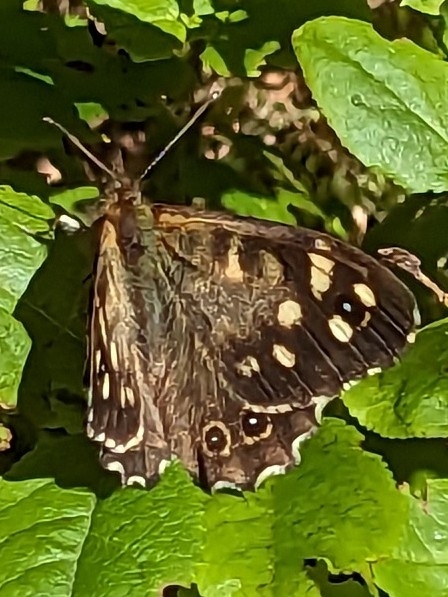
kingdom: Animalia
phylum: Arthropoda
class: Insecta
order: Lepidoptera
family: Nymphalidae
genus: Pararge
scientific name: Pararge aegeria
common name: Skovrandøje
